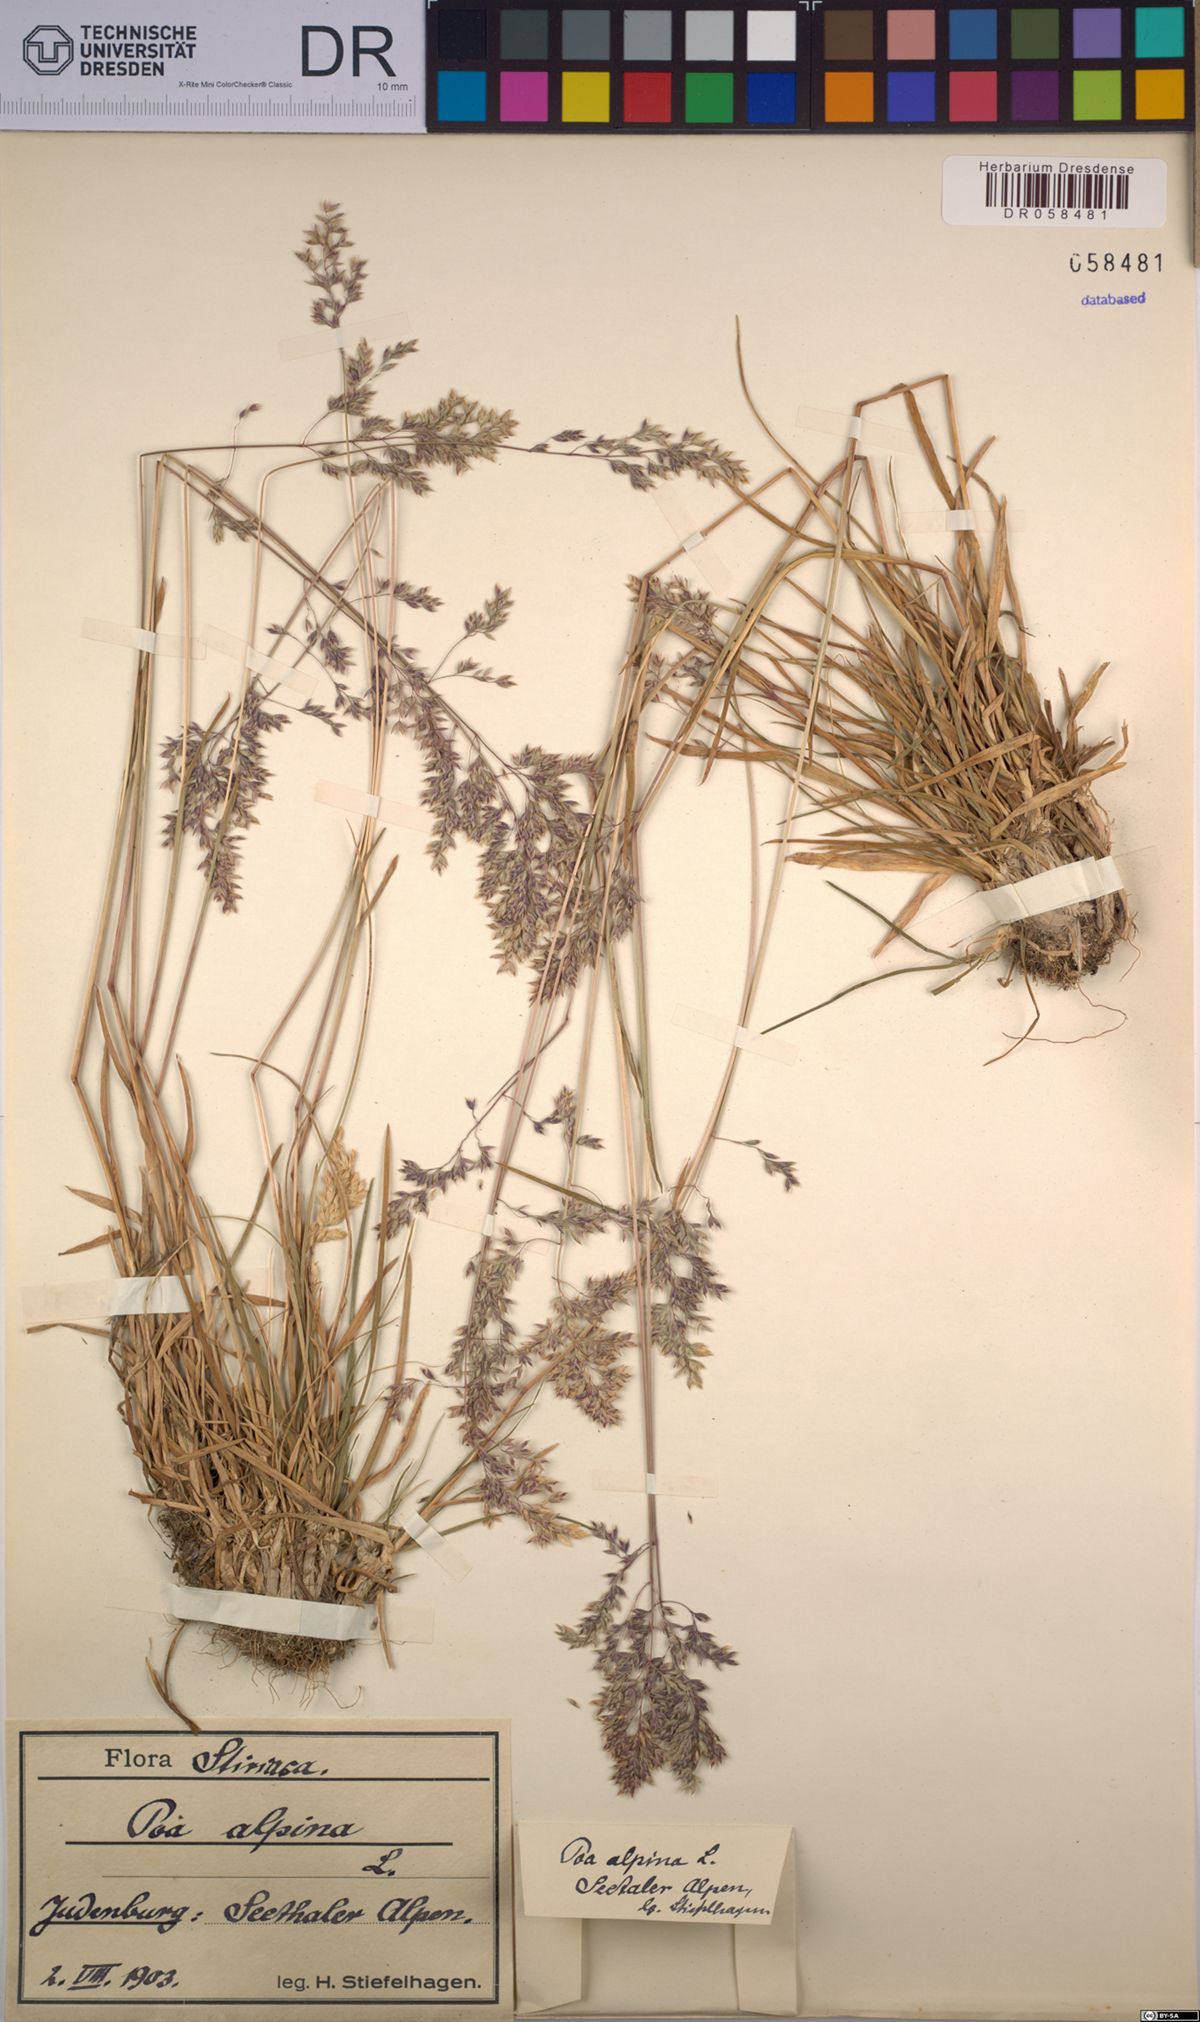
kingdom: Plantae
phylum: Tracheophyta
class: Liliopsida
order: Poales
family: Poaceae
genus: Poa
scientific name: Poa alpina
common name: Alpine bluegrass
